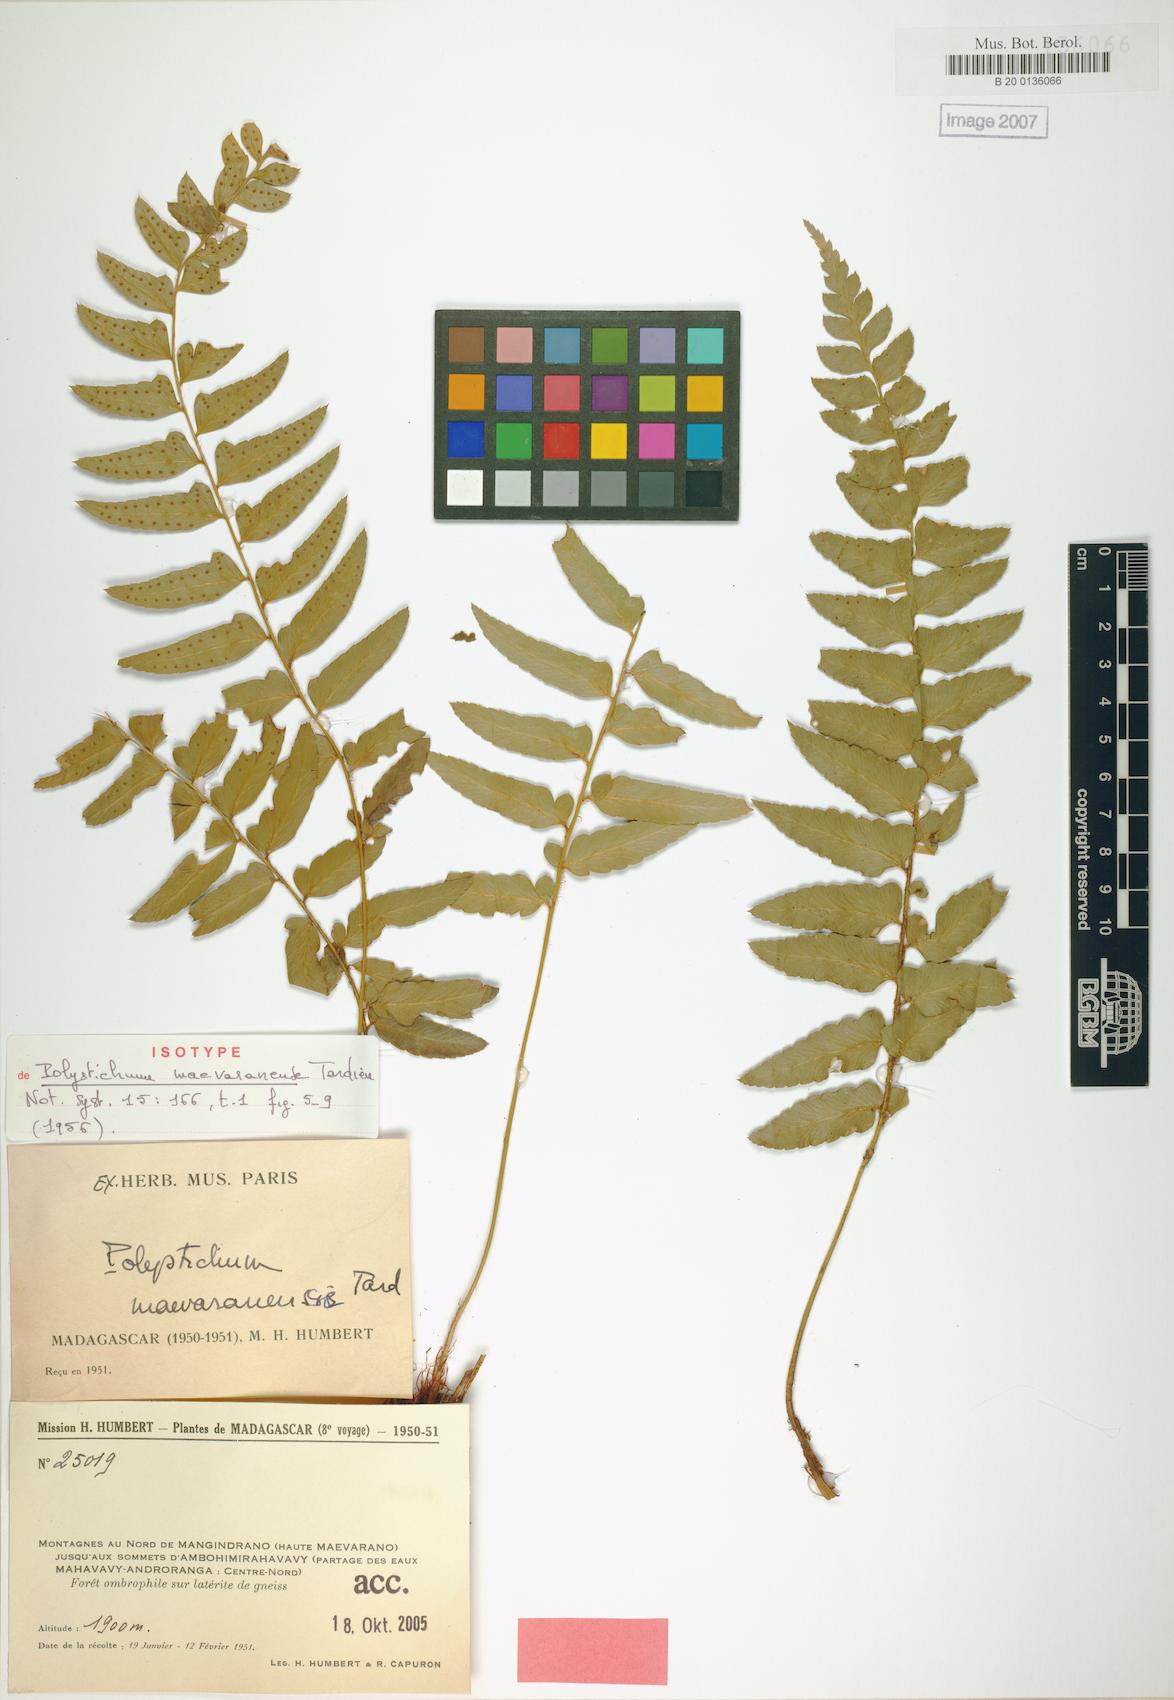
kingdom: Plantae
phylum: Tracheophyta
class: Polypodiopsida
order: Polypodiales
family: Dryopteridaceae
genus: Polystichum
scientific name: Polystichum maevaranense
